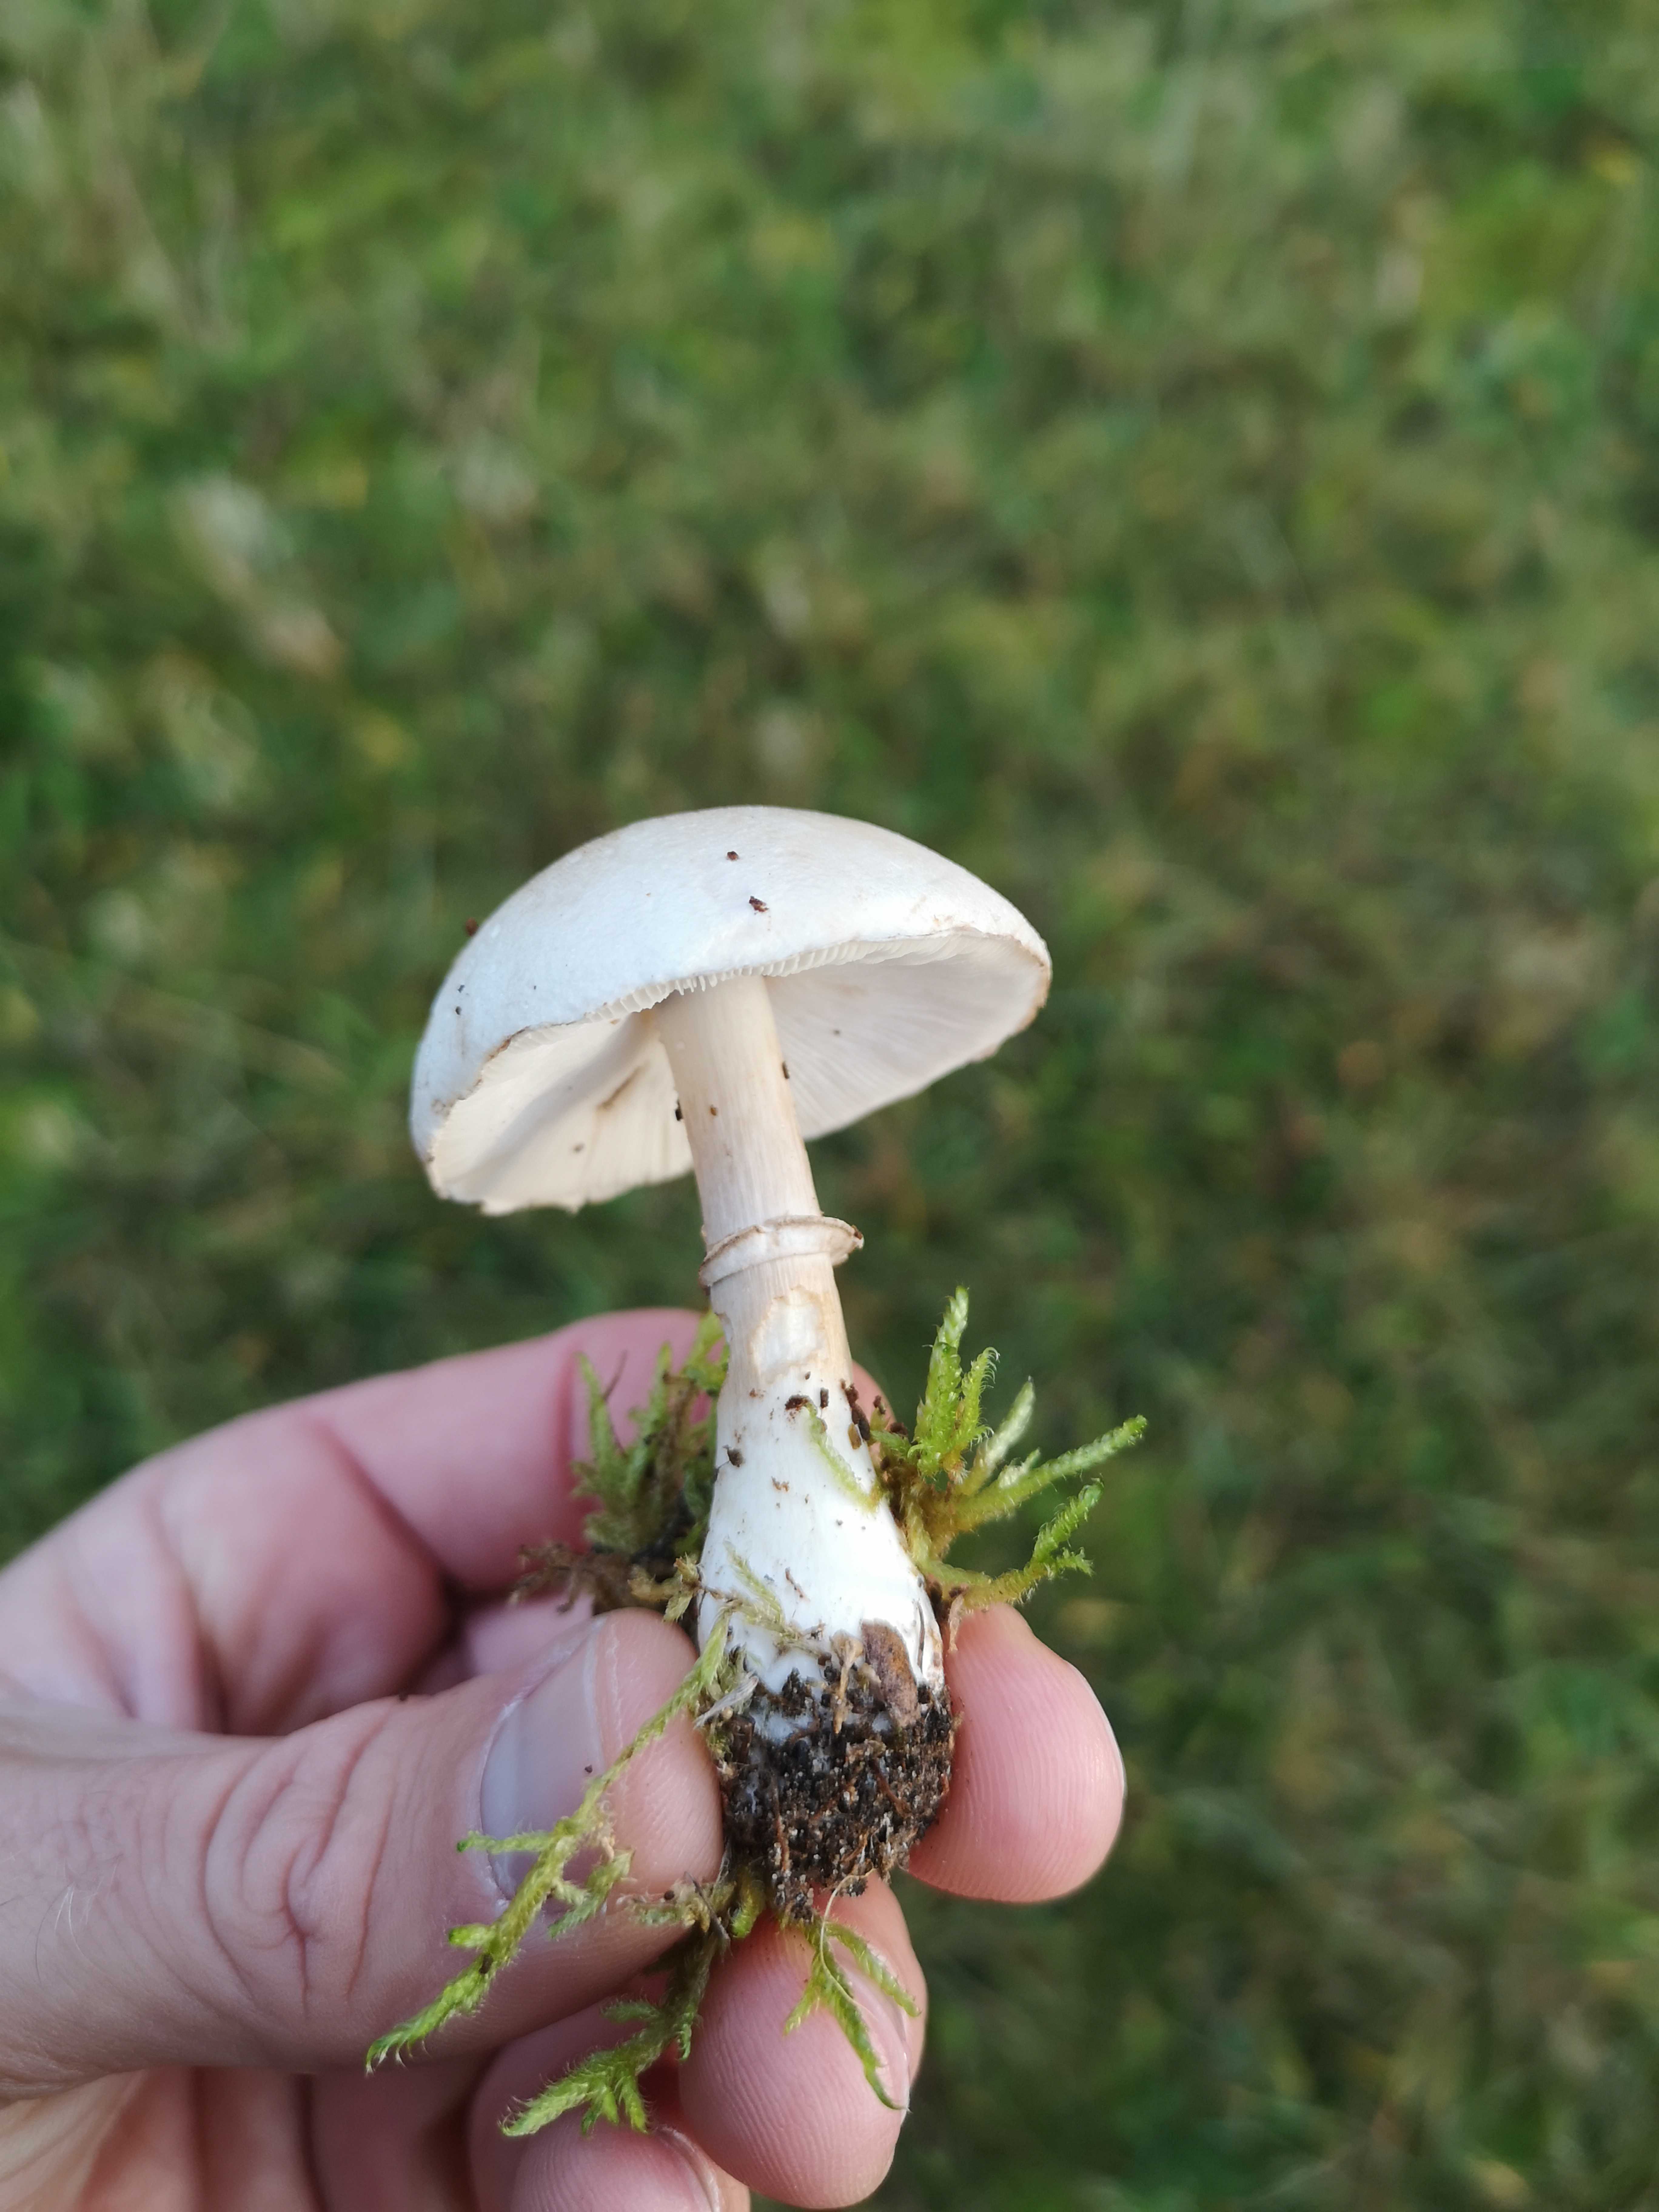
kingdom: Fungi
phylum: Basidiomycota
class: Agaricomycetes
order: Agaricales
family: Agaricaceae
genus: Leucoagaricus
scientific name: Leucoagaricus leucothites
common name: rosabladet silkehat
